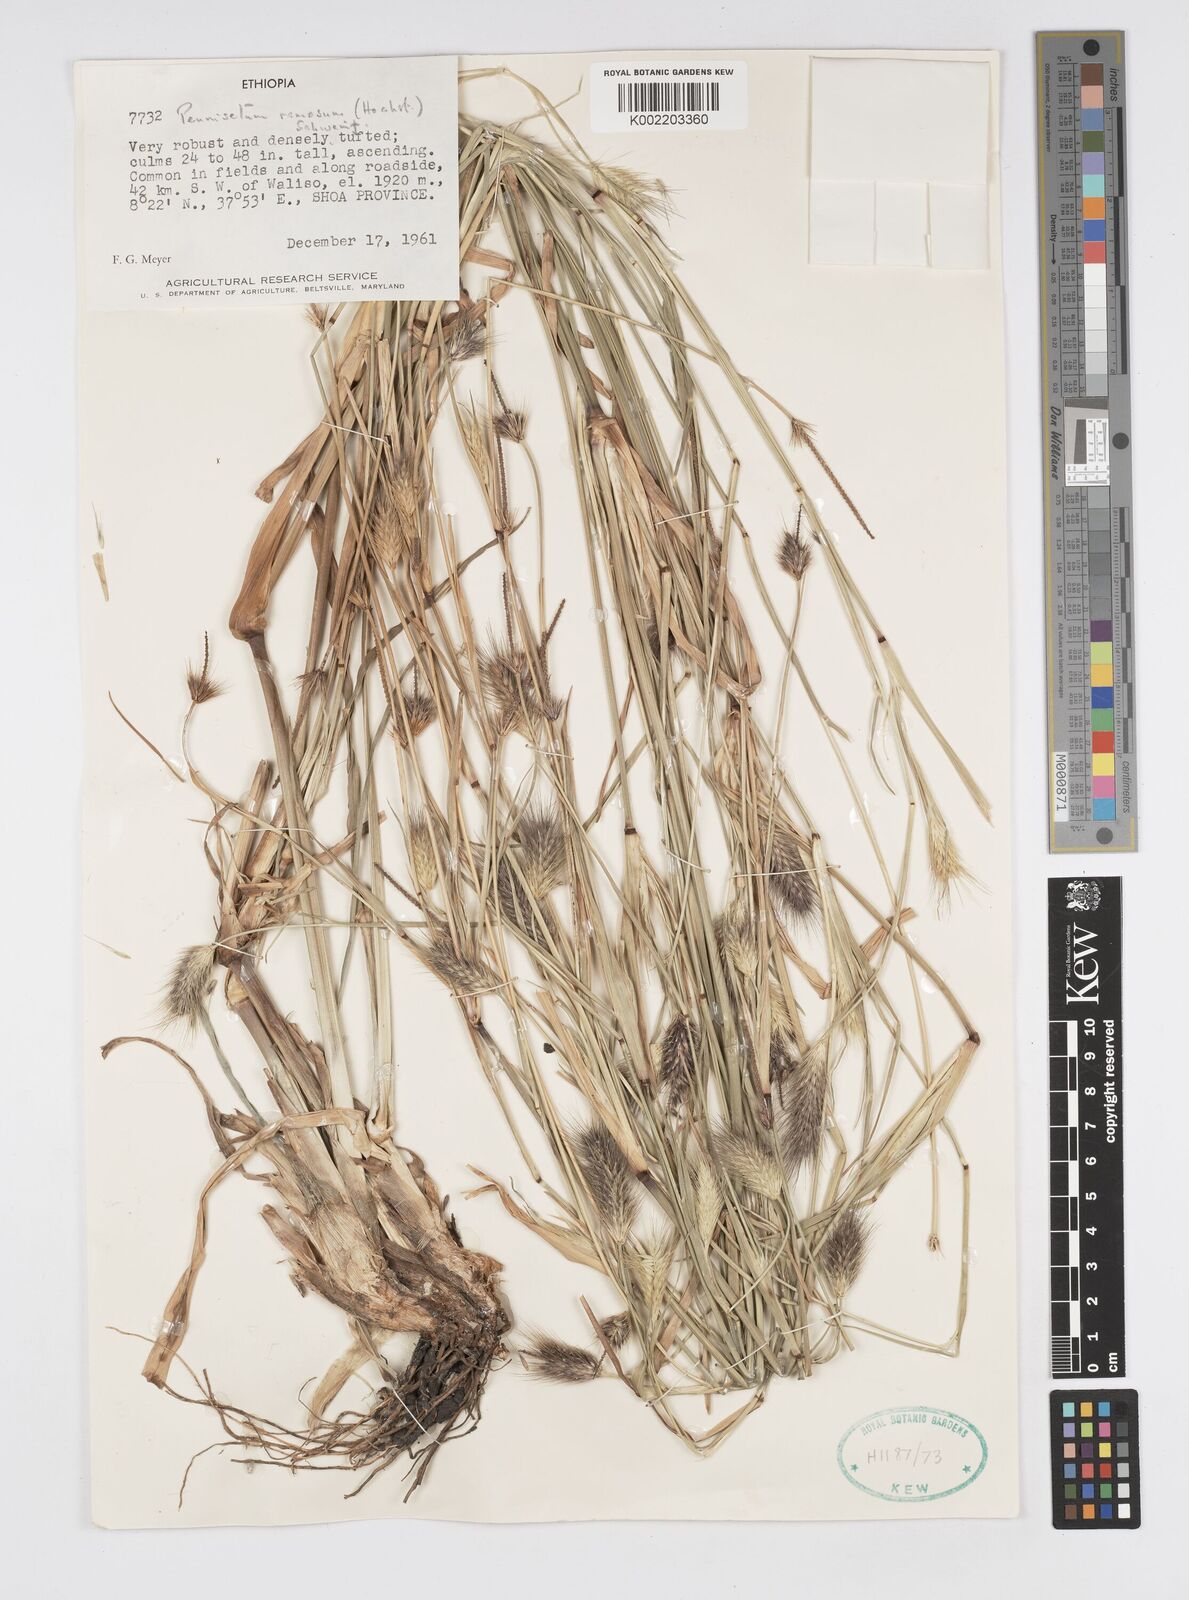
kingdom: Plantae
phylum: Tracheophyta
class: Liliopsida
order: Poales
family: Poaceae
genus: Cenchrus
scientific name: Cenchrus ramosus
